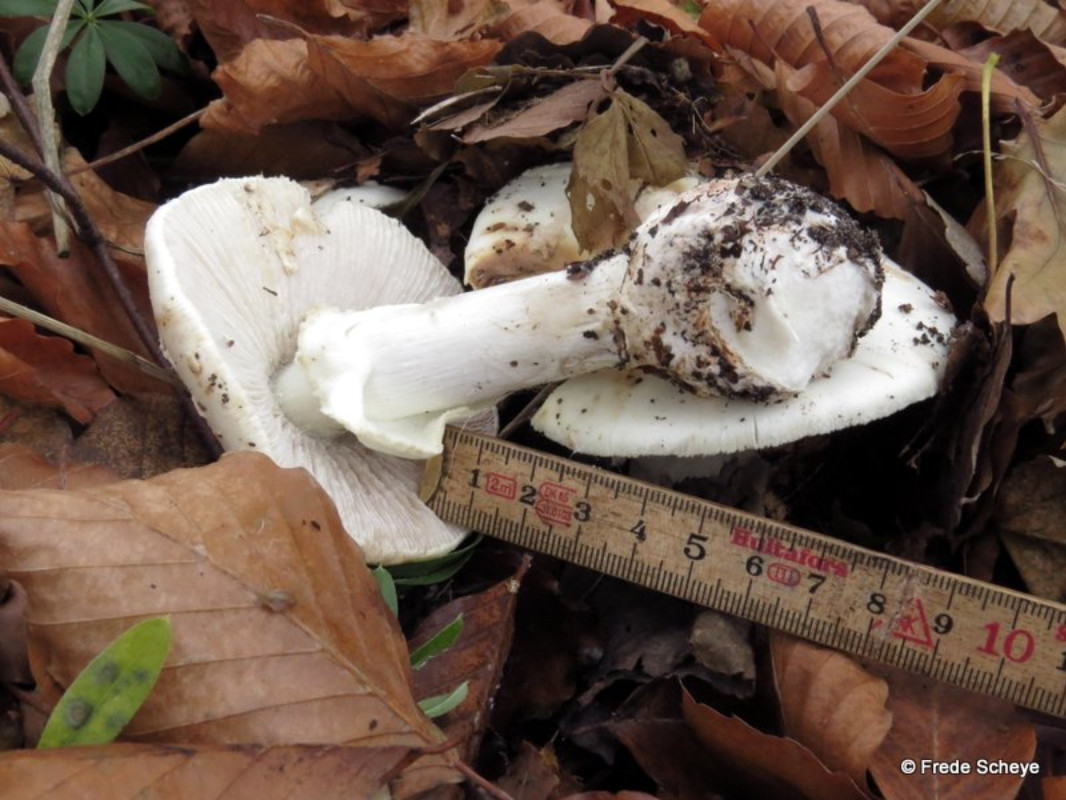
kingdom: Fungi
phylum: Basidiomycota
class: Agaricomycetes
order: Agaricales
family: Amanitaceae
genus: Amanita
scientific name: Amanita citrina
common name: kugleknoldet fluesvamp
